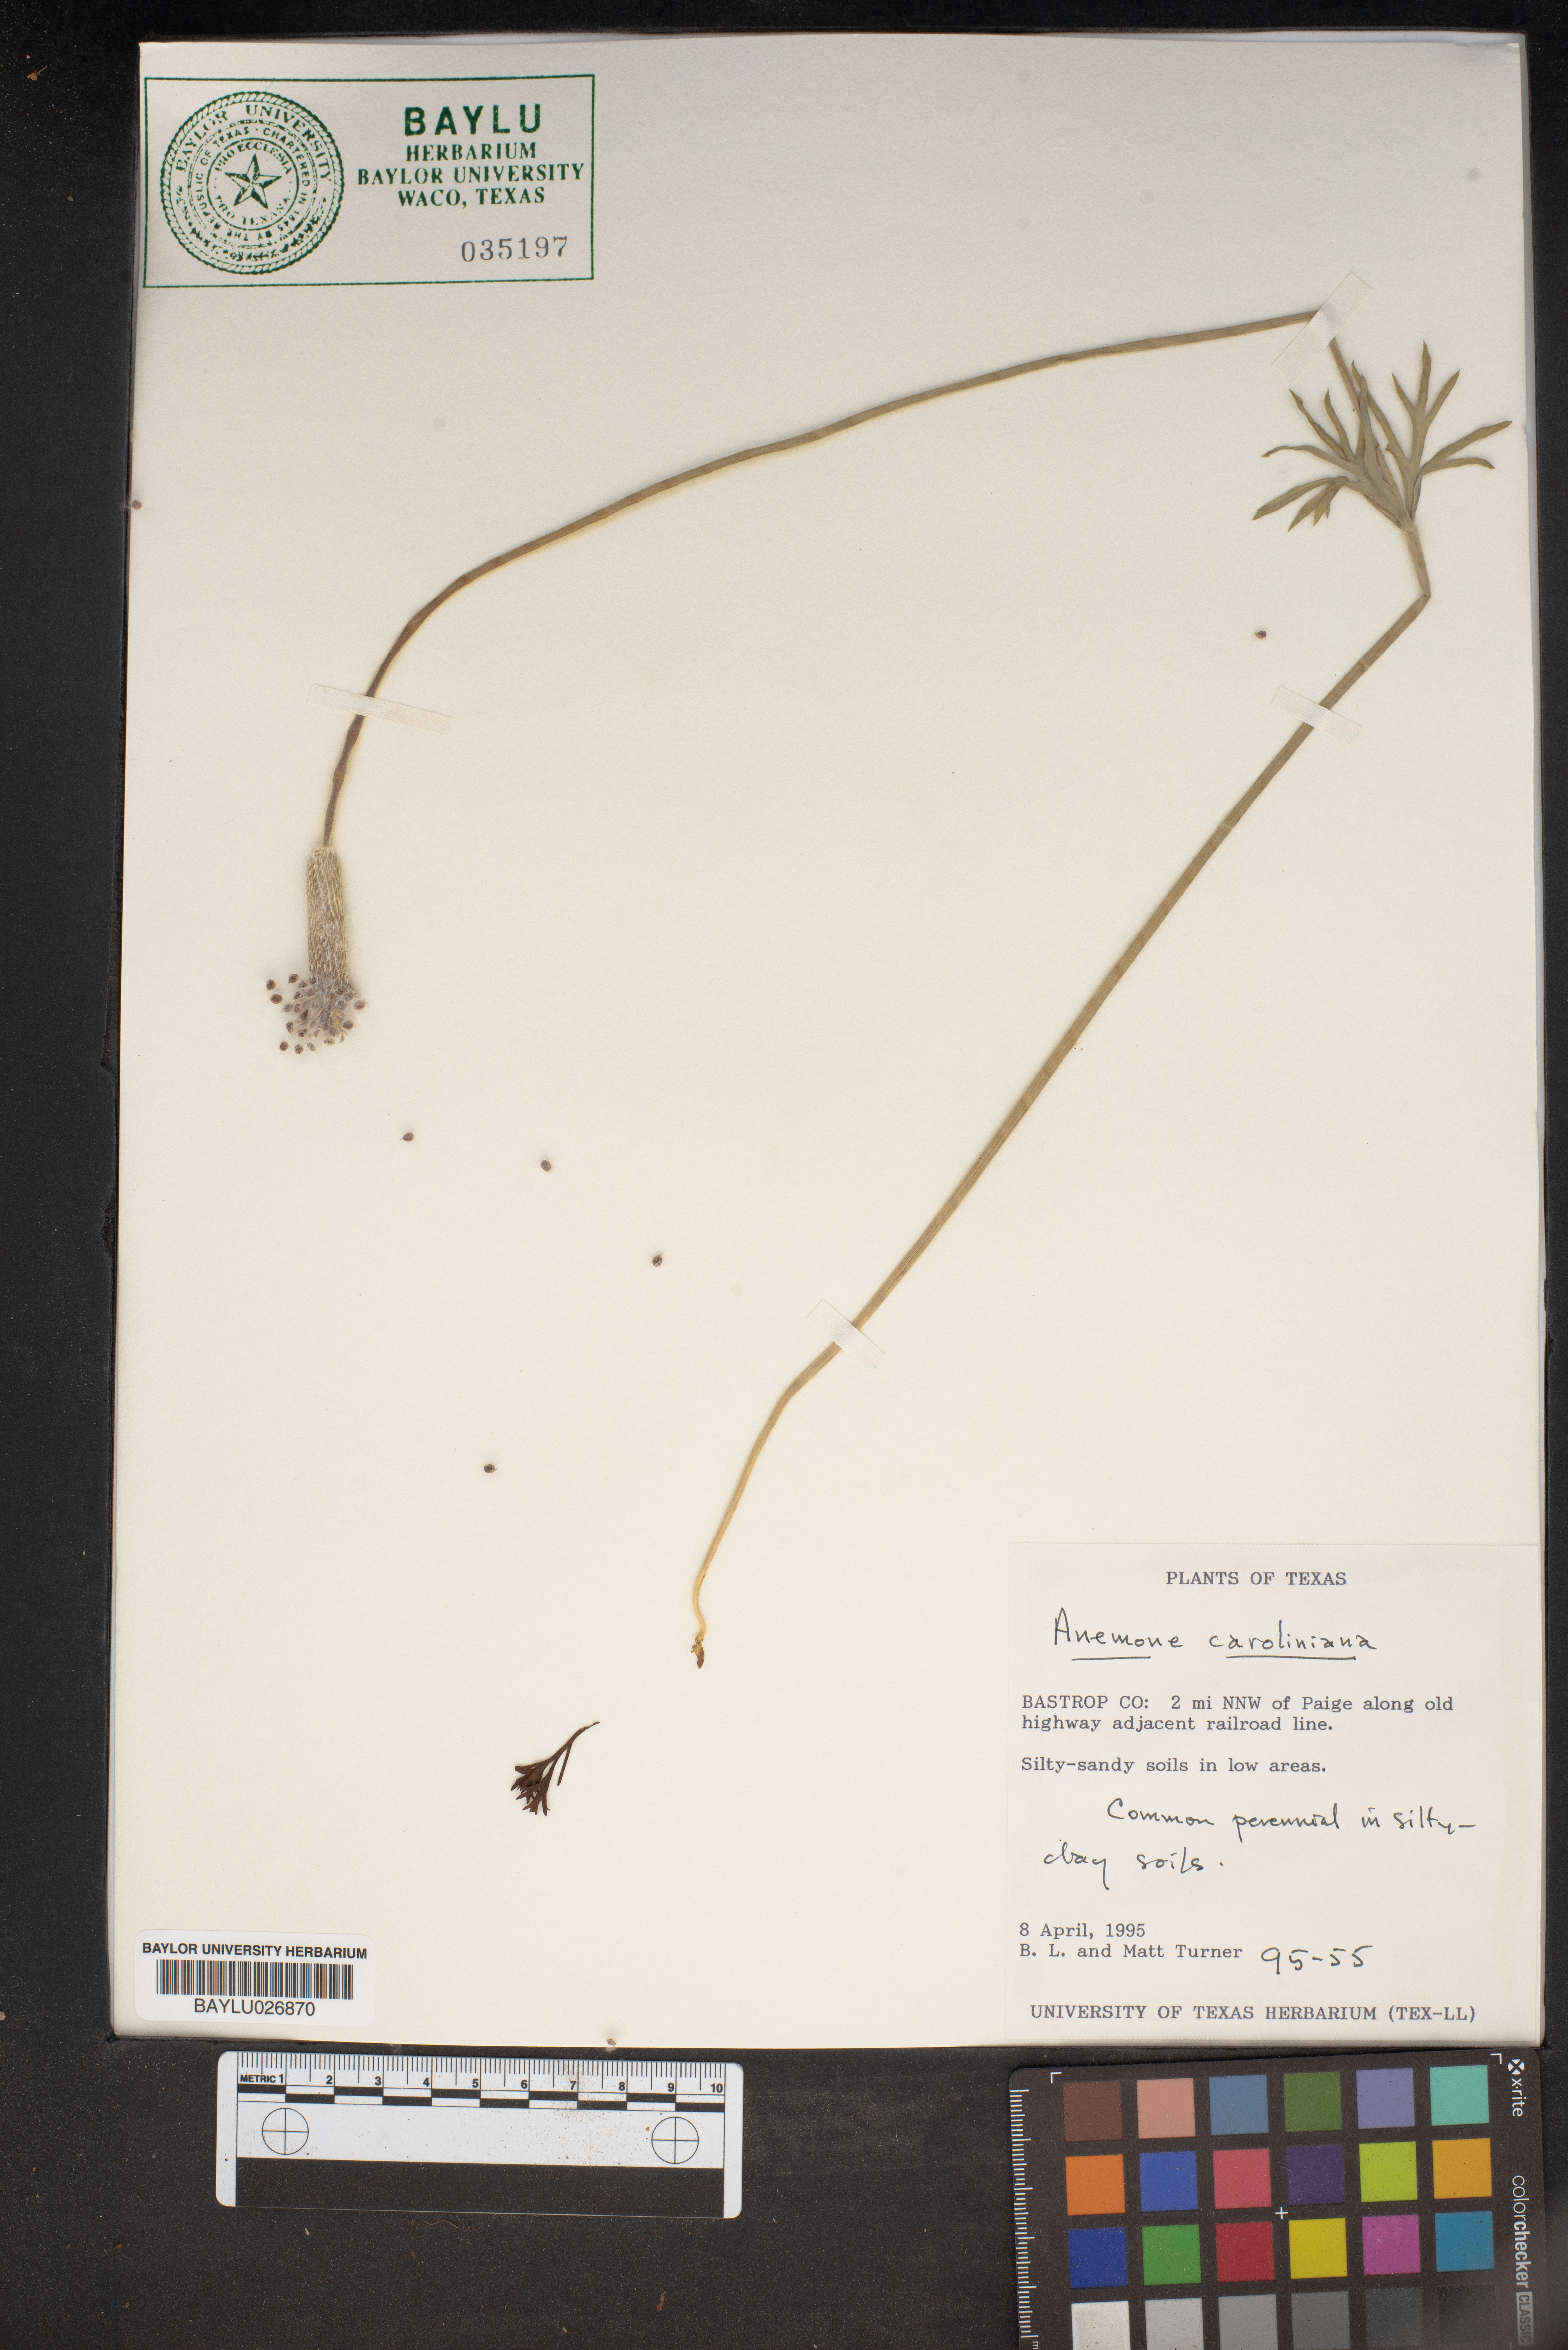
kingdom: Plantae
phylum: Tracheophyta
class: Magnoliopsida
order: Ranunculales
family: Ranunculaceae
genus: Anemone
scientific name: Anemone caroliniana
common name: Carolina anemone
